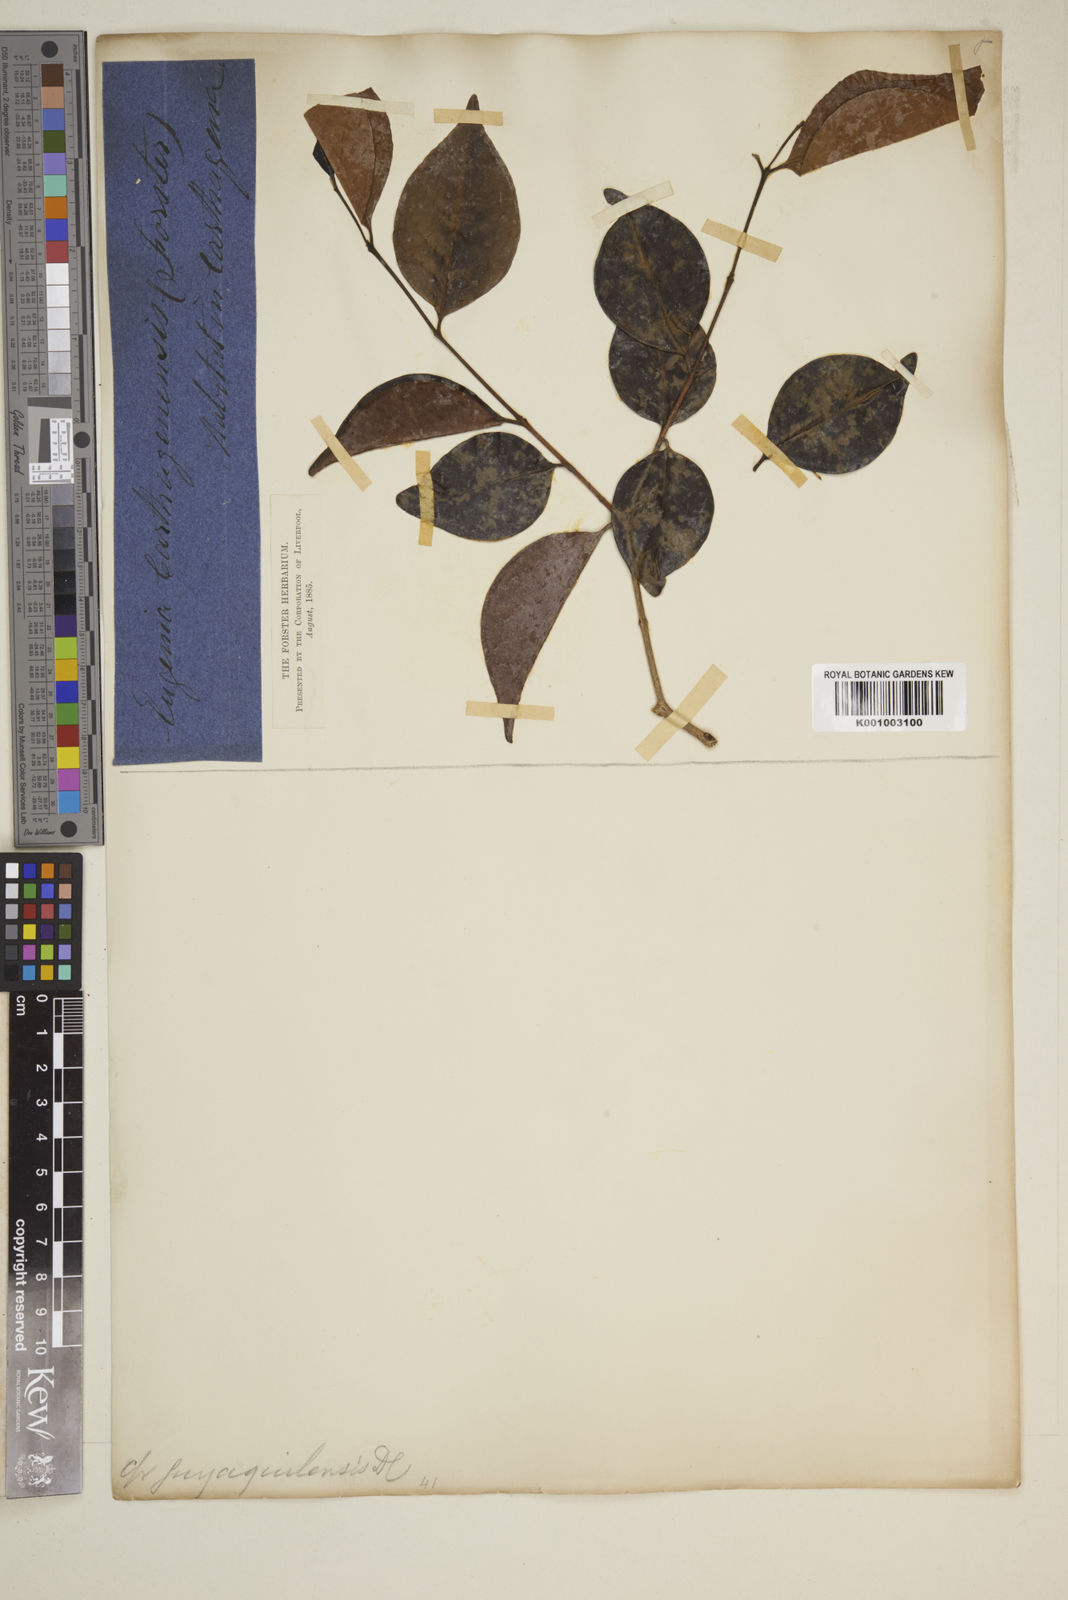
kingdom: Plantae
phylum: Tracheophyta
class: Magnoliopsida
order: Myrtales
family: Myrtaceae
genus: Eugenia
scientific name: Eugenia
